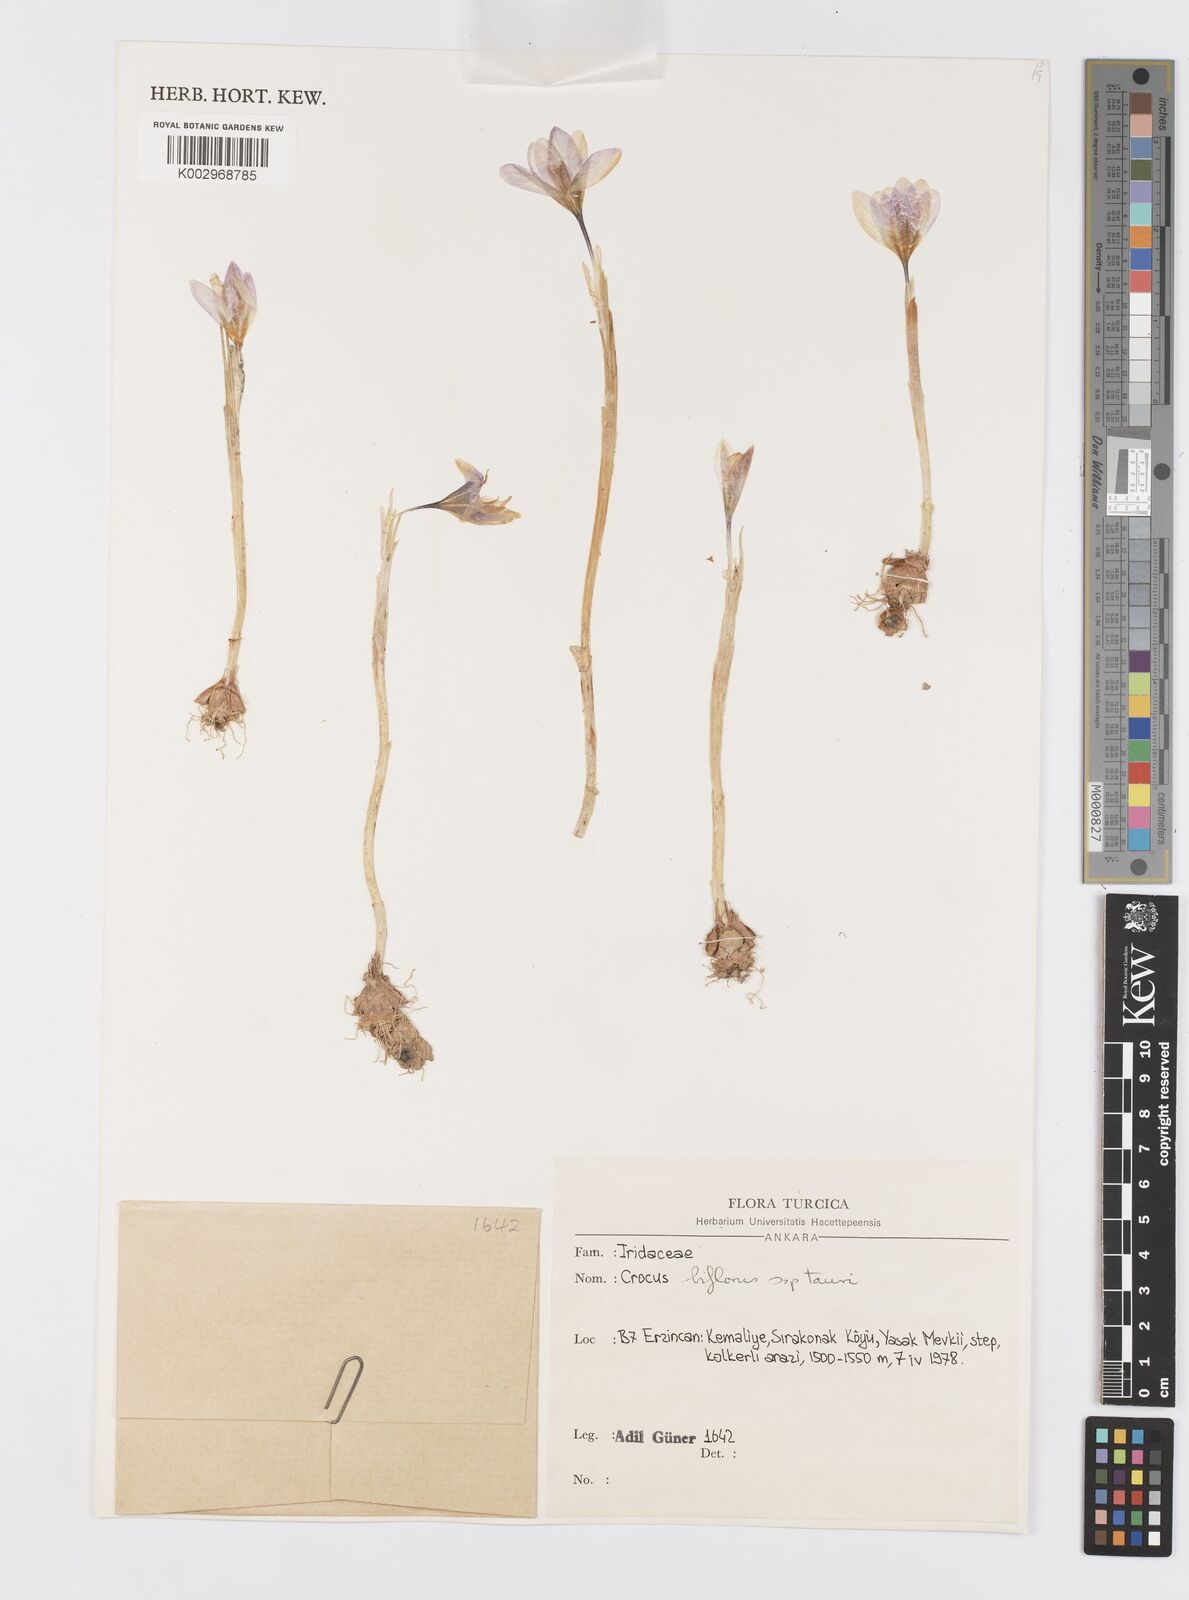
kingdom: Plantae
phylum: Tracheophyta
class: Liliopsida
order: Asparagales
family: Iridaceae
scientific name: Iridaceae
